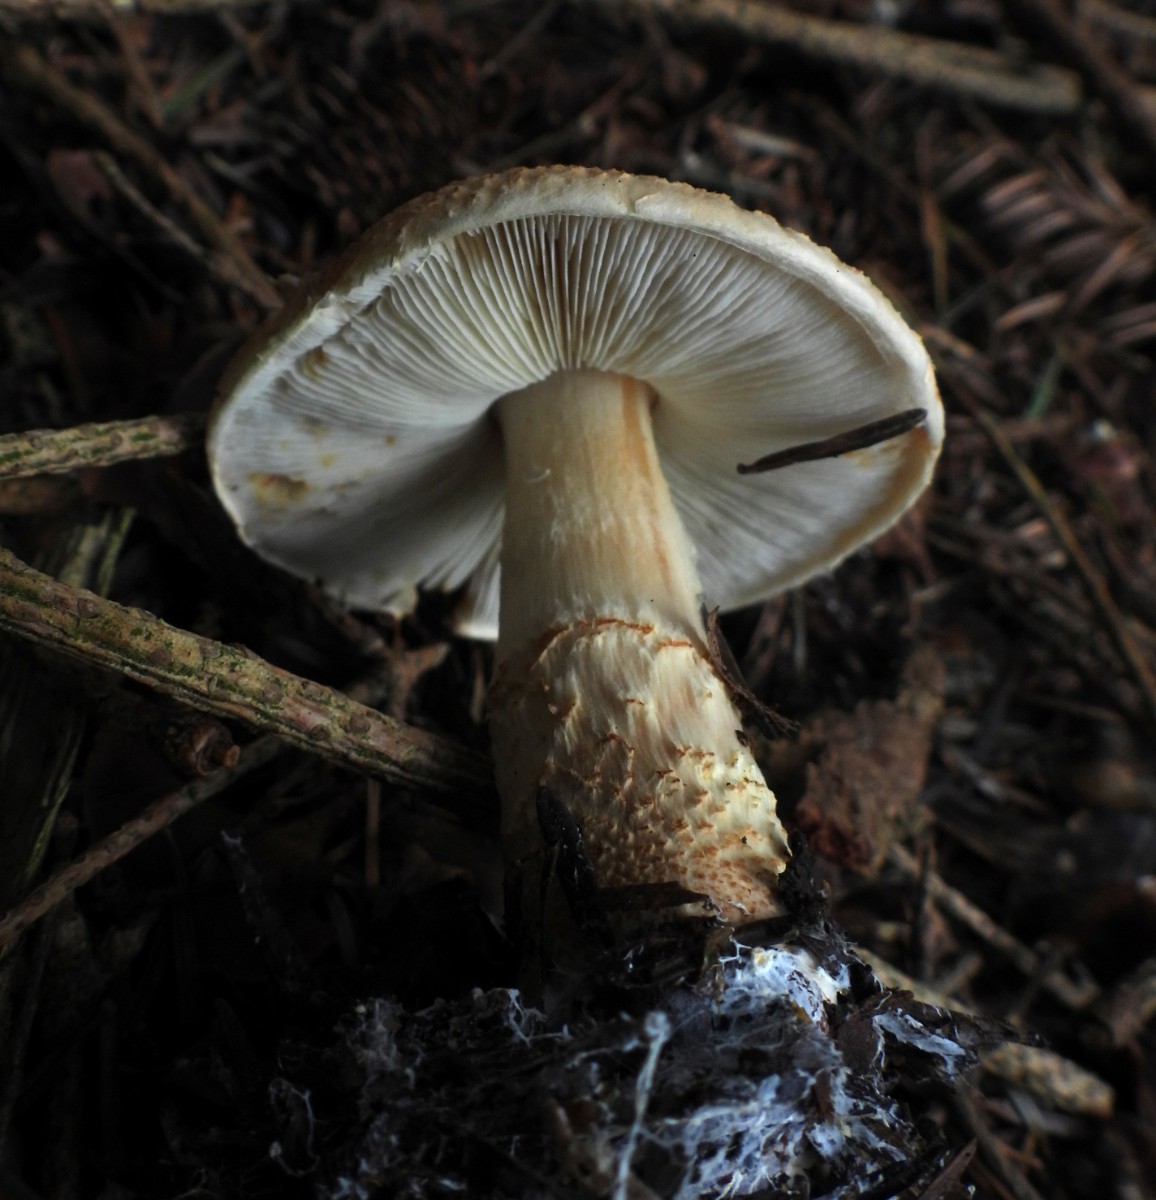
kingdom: Fungi
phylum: Basidiomycota
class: Agaricomycetes
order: Agaricales
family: Agaricaceae
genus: Lepiota
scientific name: Lepiota ochraceofulva
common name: sødtduftende parasolhat
